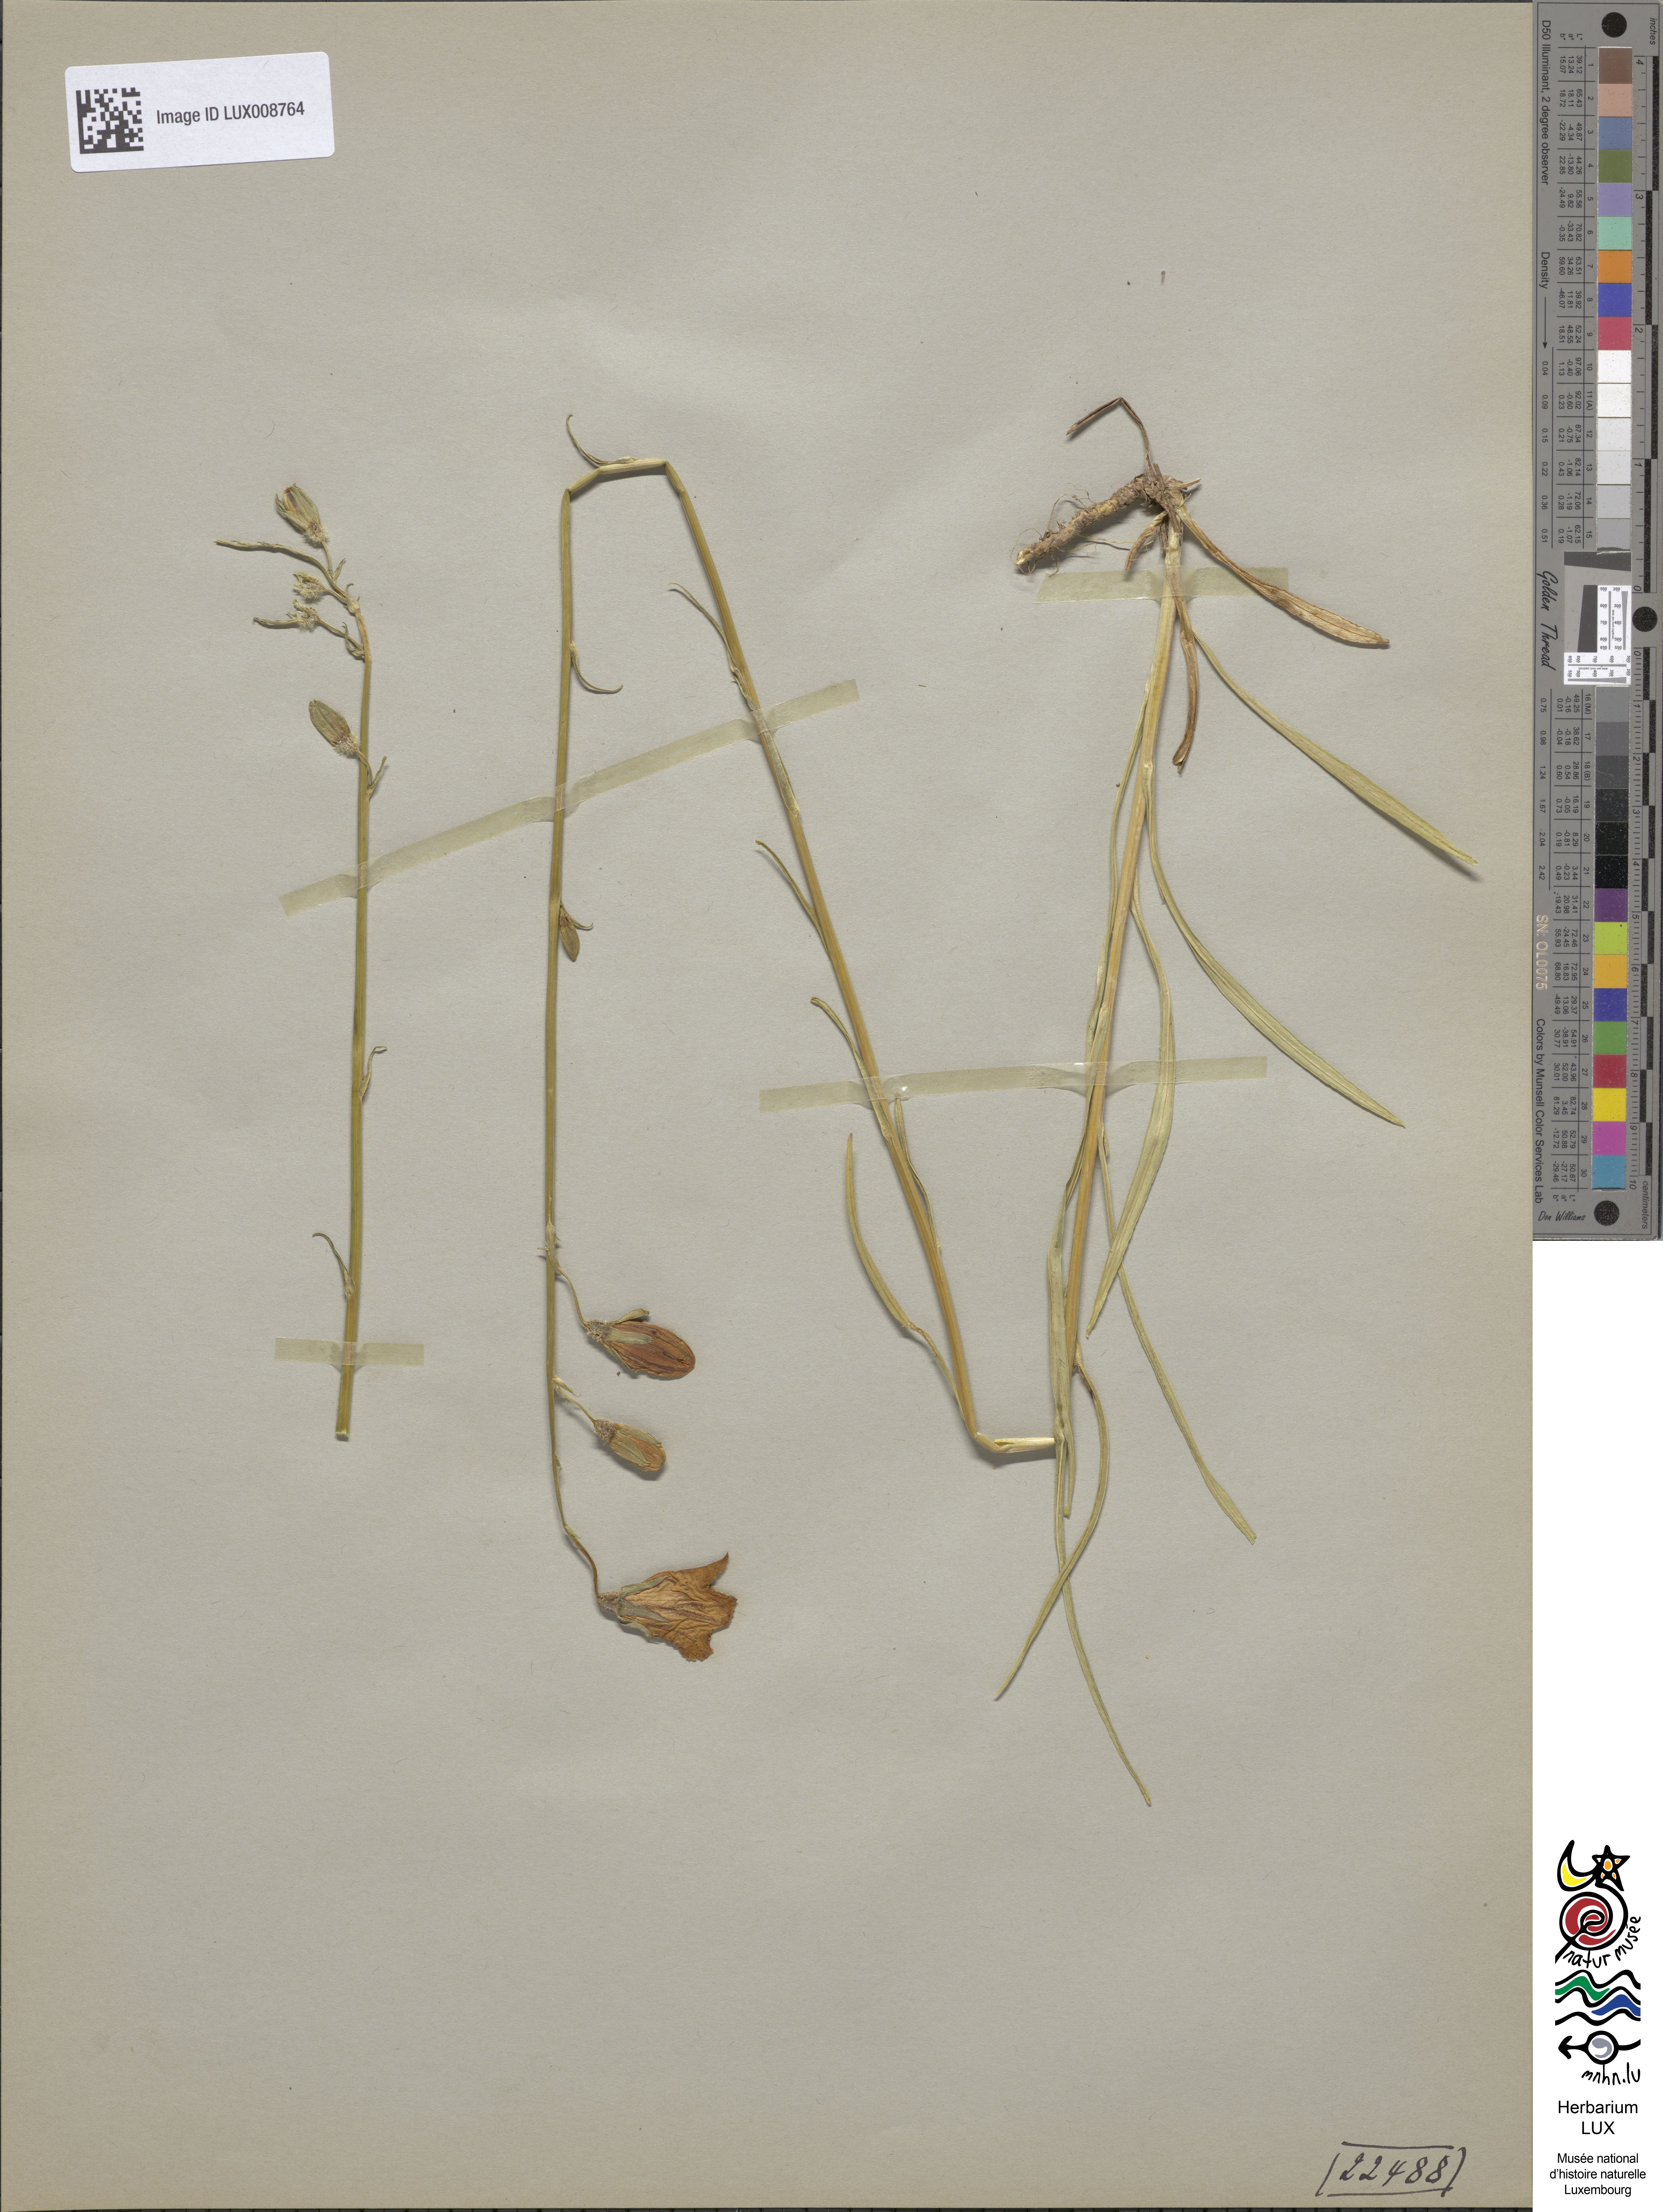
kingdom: Plantae
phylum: Tracheophyta
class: Magnoliopsida
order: Asterales
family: Campanulaceae
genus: Campanula
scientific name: Campanula persicifolia
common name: Peach-leaved bellflower
